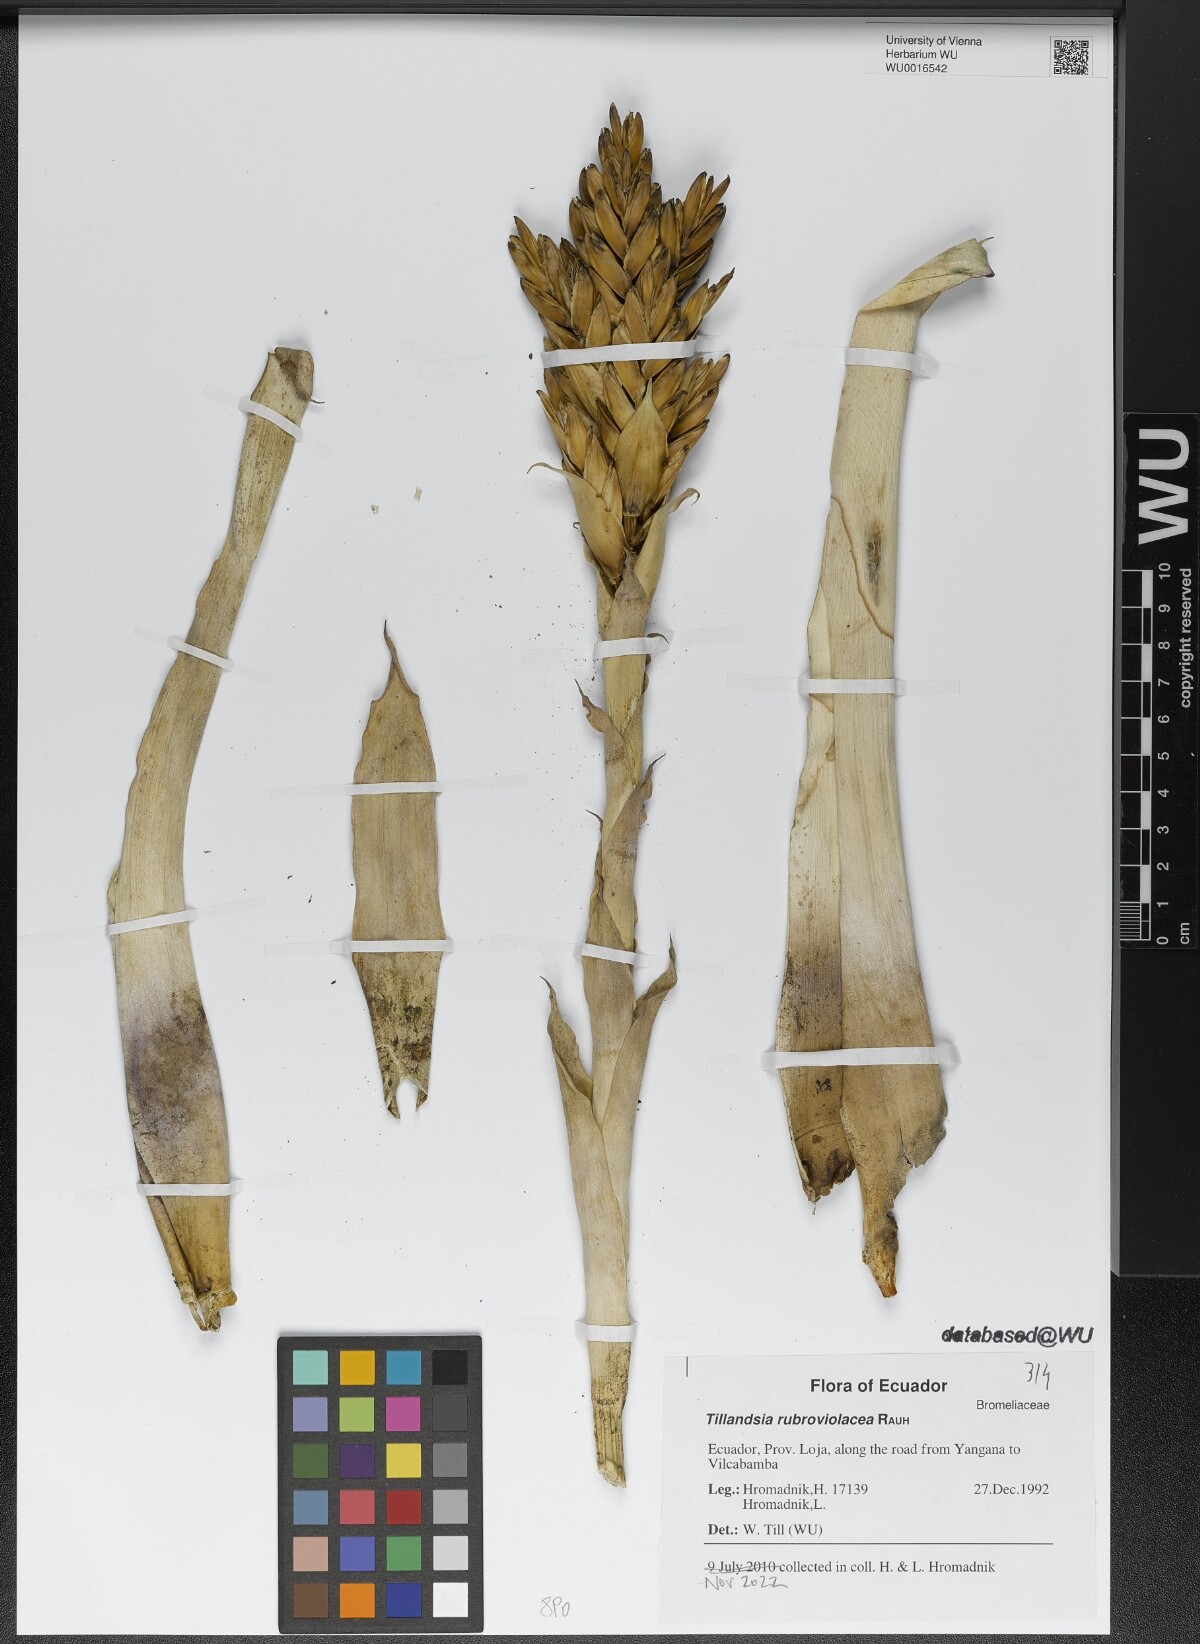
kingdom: Plantae
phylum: Tracheophyta
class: Liliopsida
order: Poales
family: Bromeliaceae
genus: Tillandsia
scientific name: Tillandsia rubroviolacea
